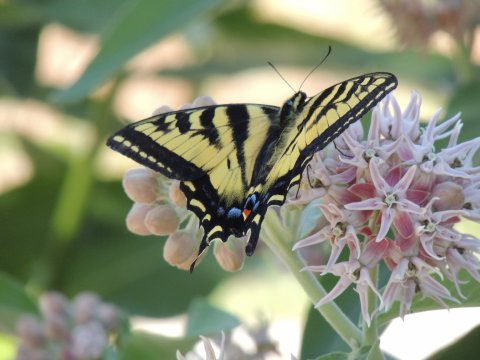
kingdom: Animalia
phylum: Arthropoda
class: Insecta
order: Lepidoptera
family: Papilionidae
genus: Pterourus
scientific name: Pterourus rutulus
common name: Western Tiger Swallowtail
